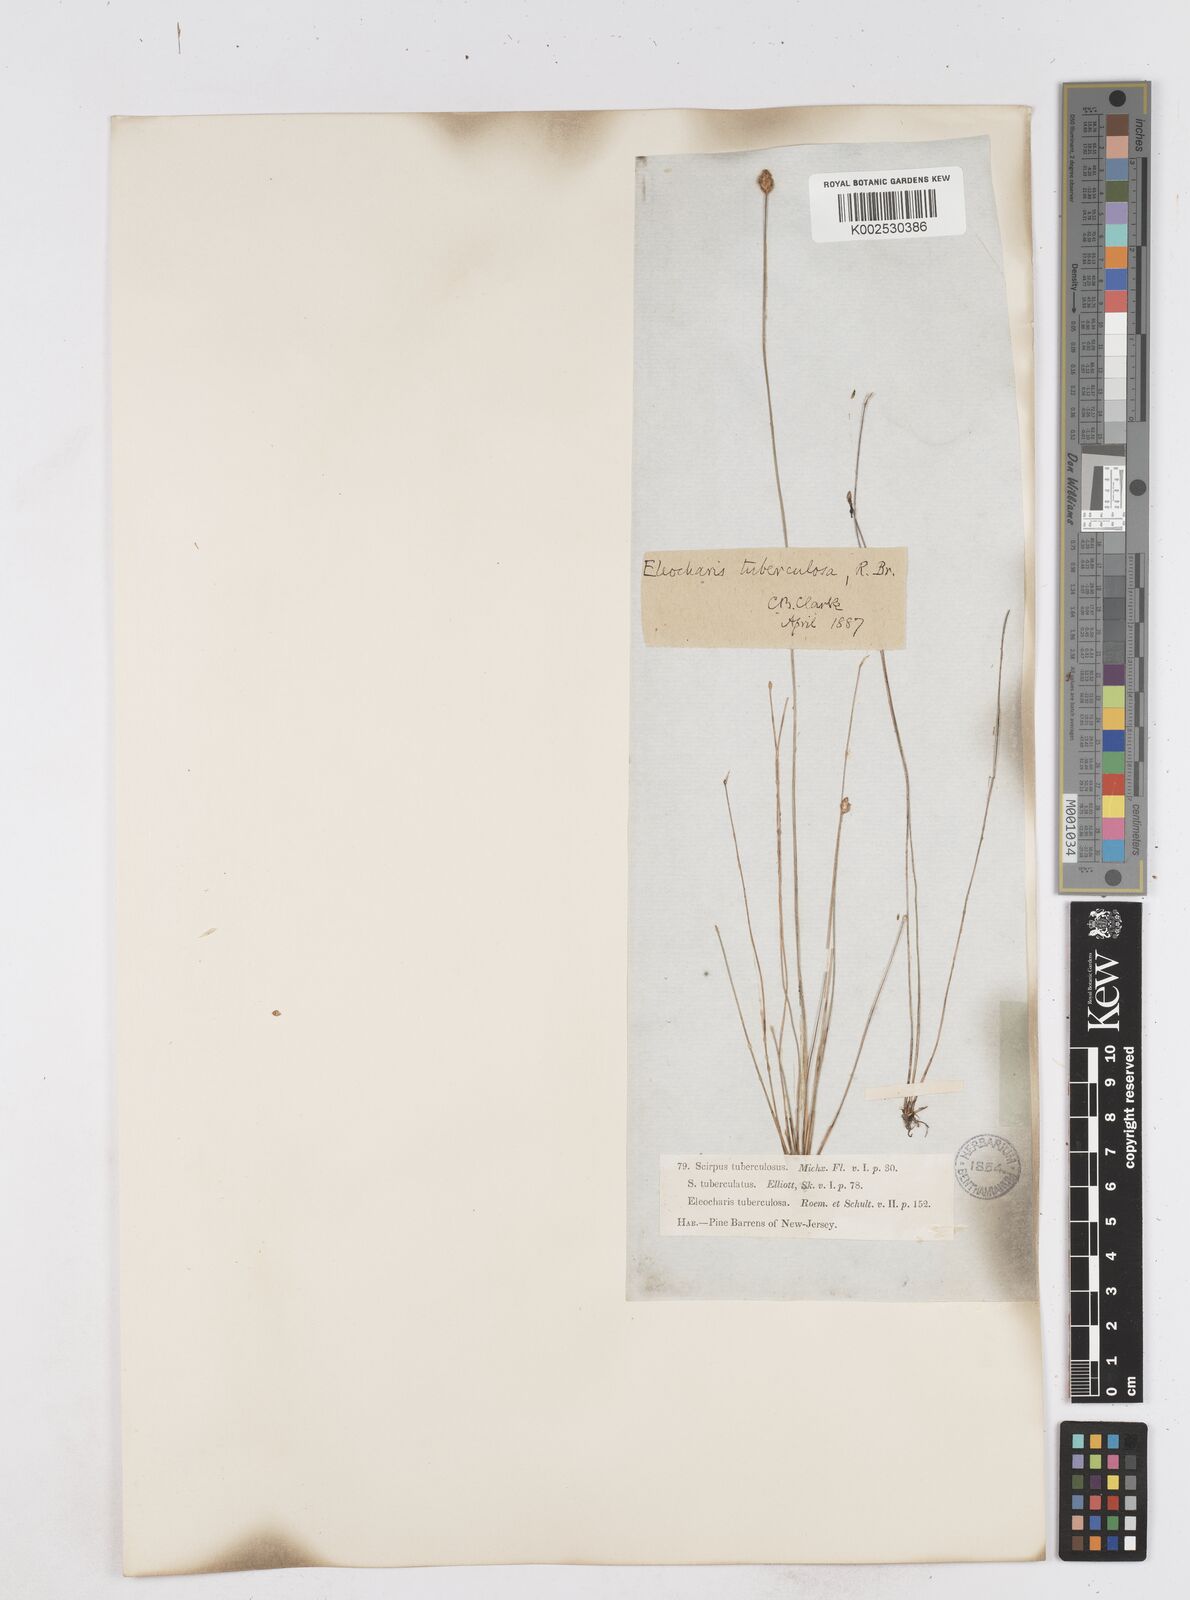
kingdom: Plantae
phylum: Tracheophyta
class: Liliopsida
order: Poales
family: Cyperaceae
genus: Eleocharis
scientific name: Eleocharis tuberculosa
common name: Cone-cup spikerush
